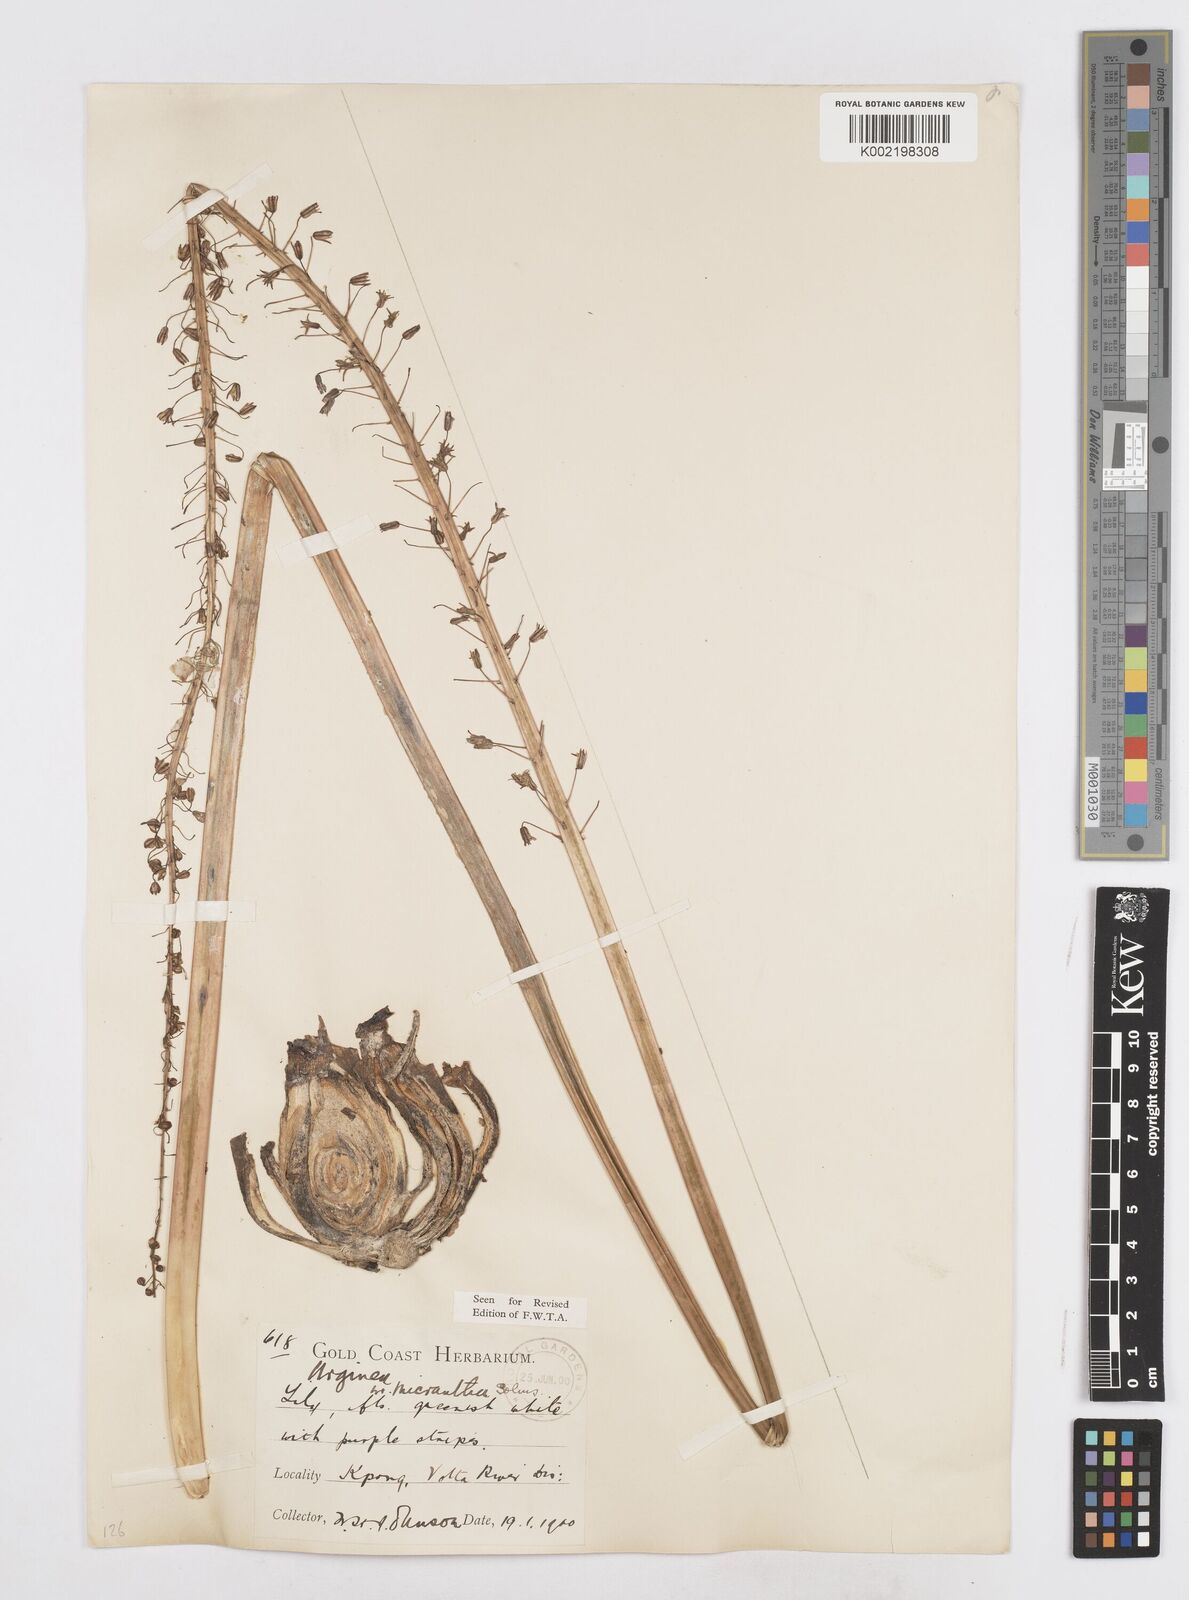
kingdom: Plantae
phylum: Tracheophyta
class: Liliopsida
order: Asparagales
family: Asparagaceae
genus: Drimia
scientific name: Drimia altissima
